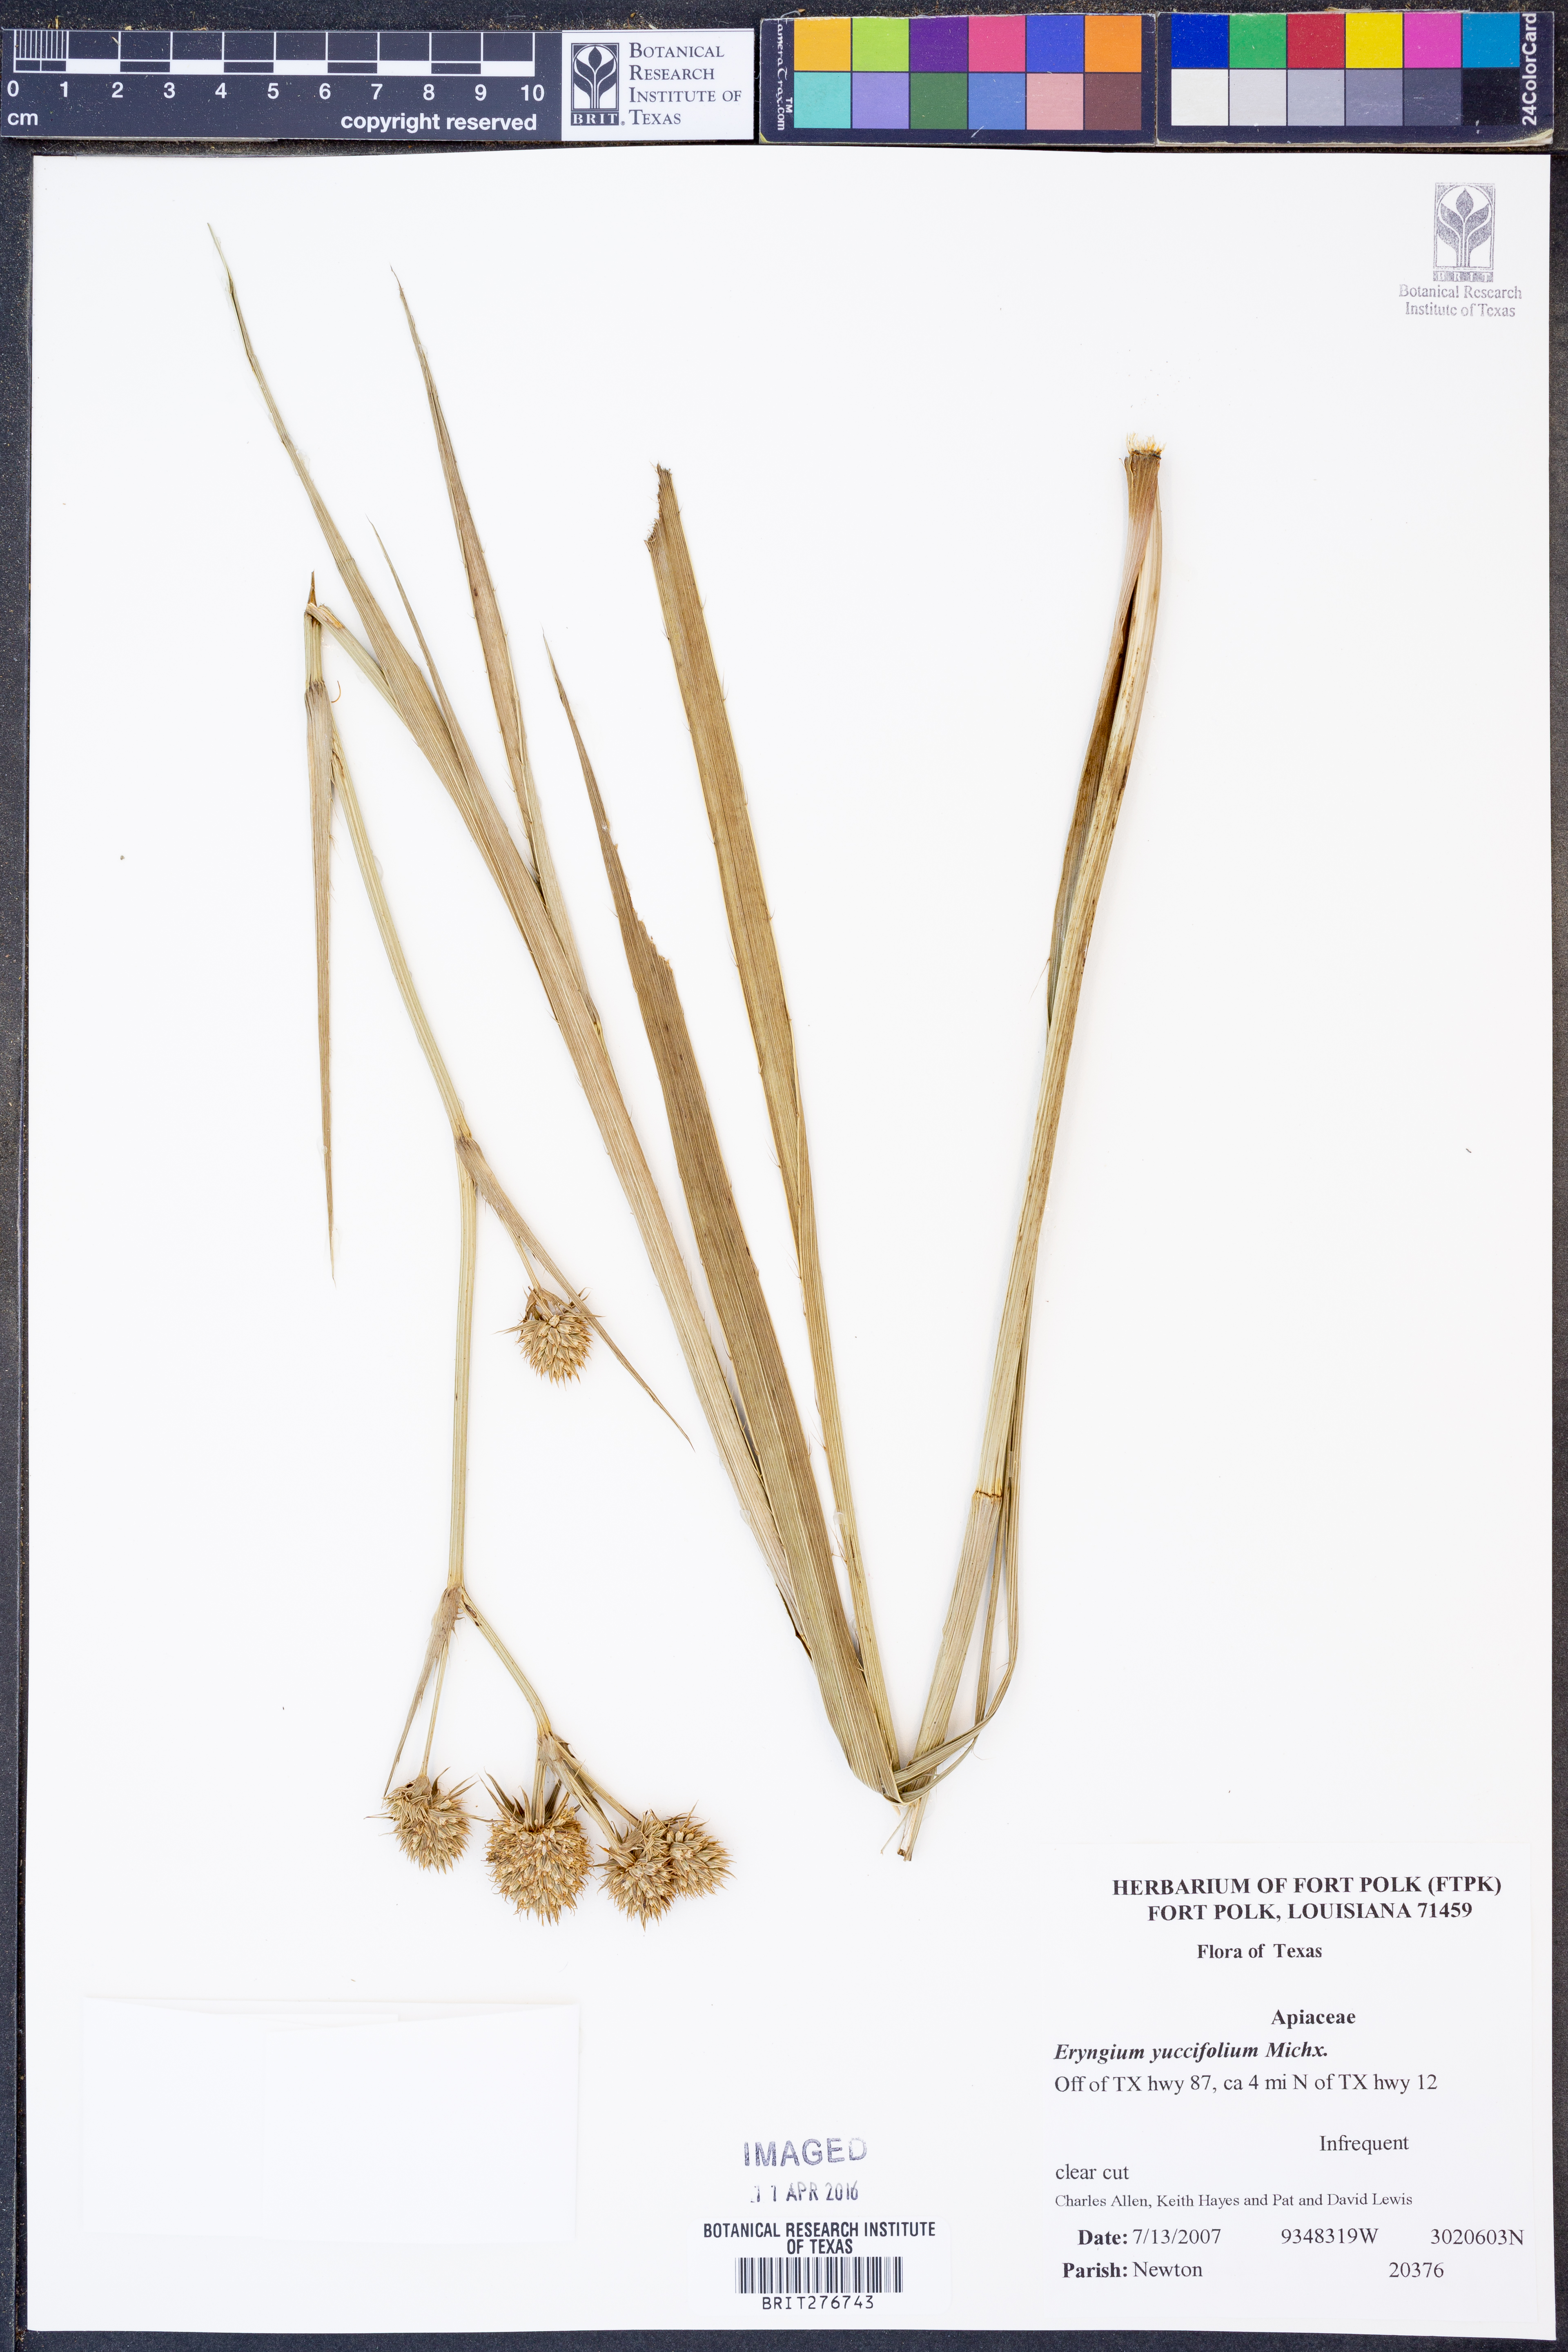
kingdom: Plantae
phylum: Tracheophyta
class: Magnoliopsida
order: Apiales
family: Apiaceae
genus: Eryngium
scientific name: Eryngium yuccifolium
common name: Button eryngo
